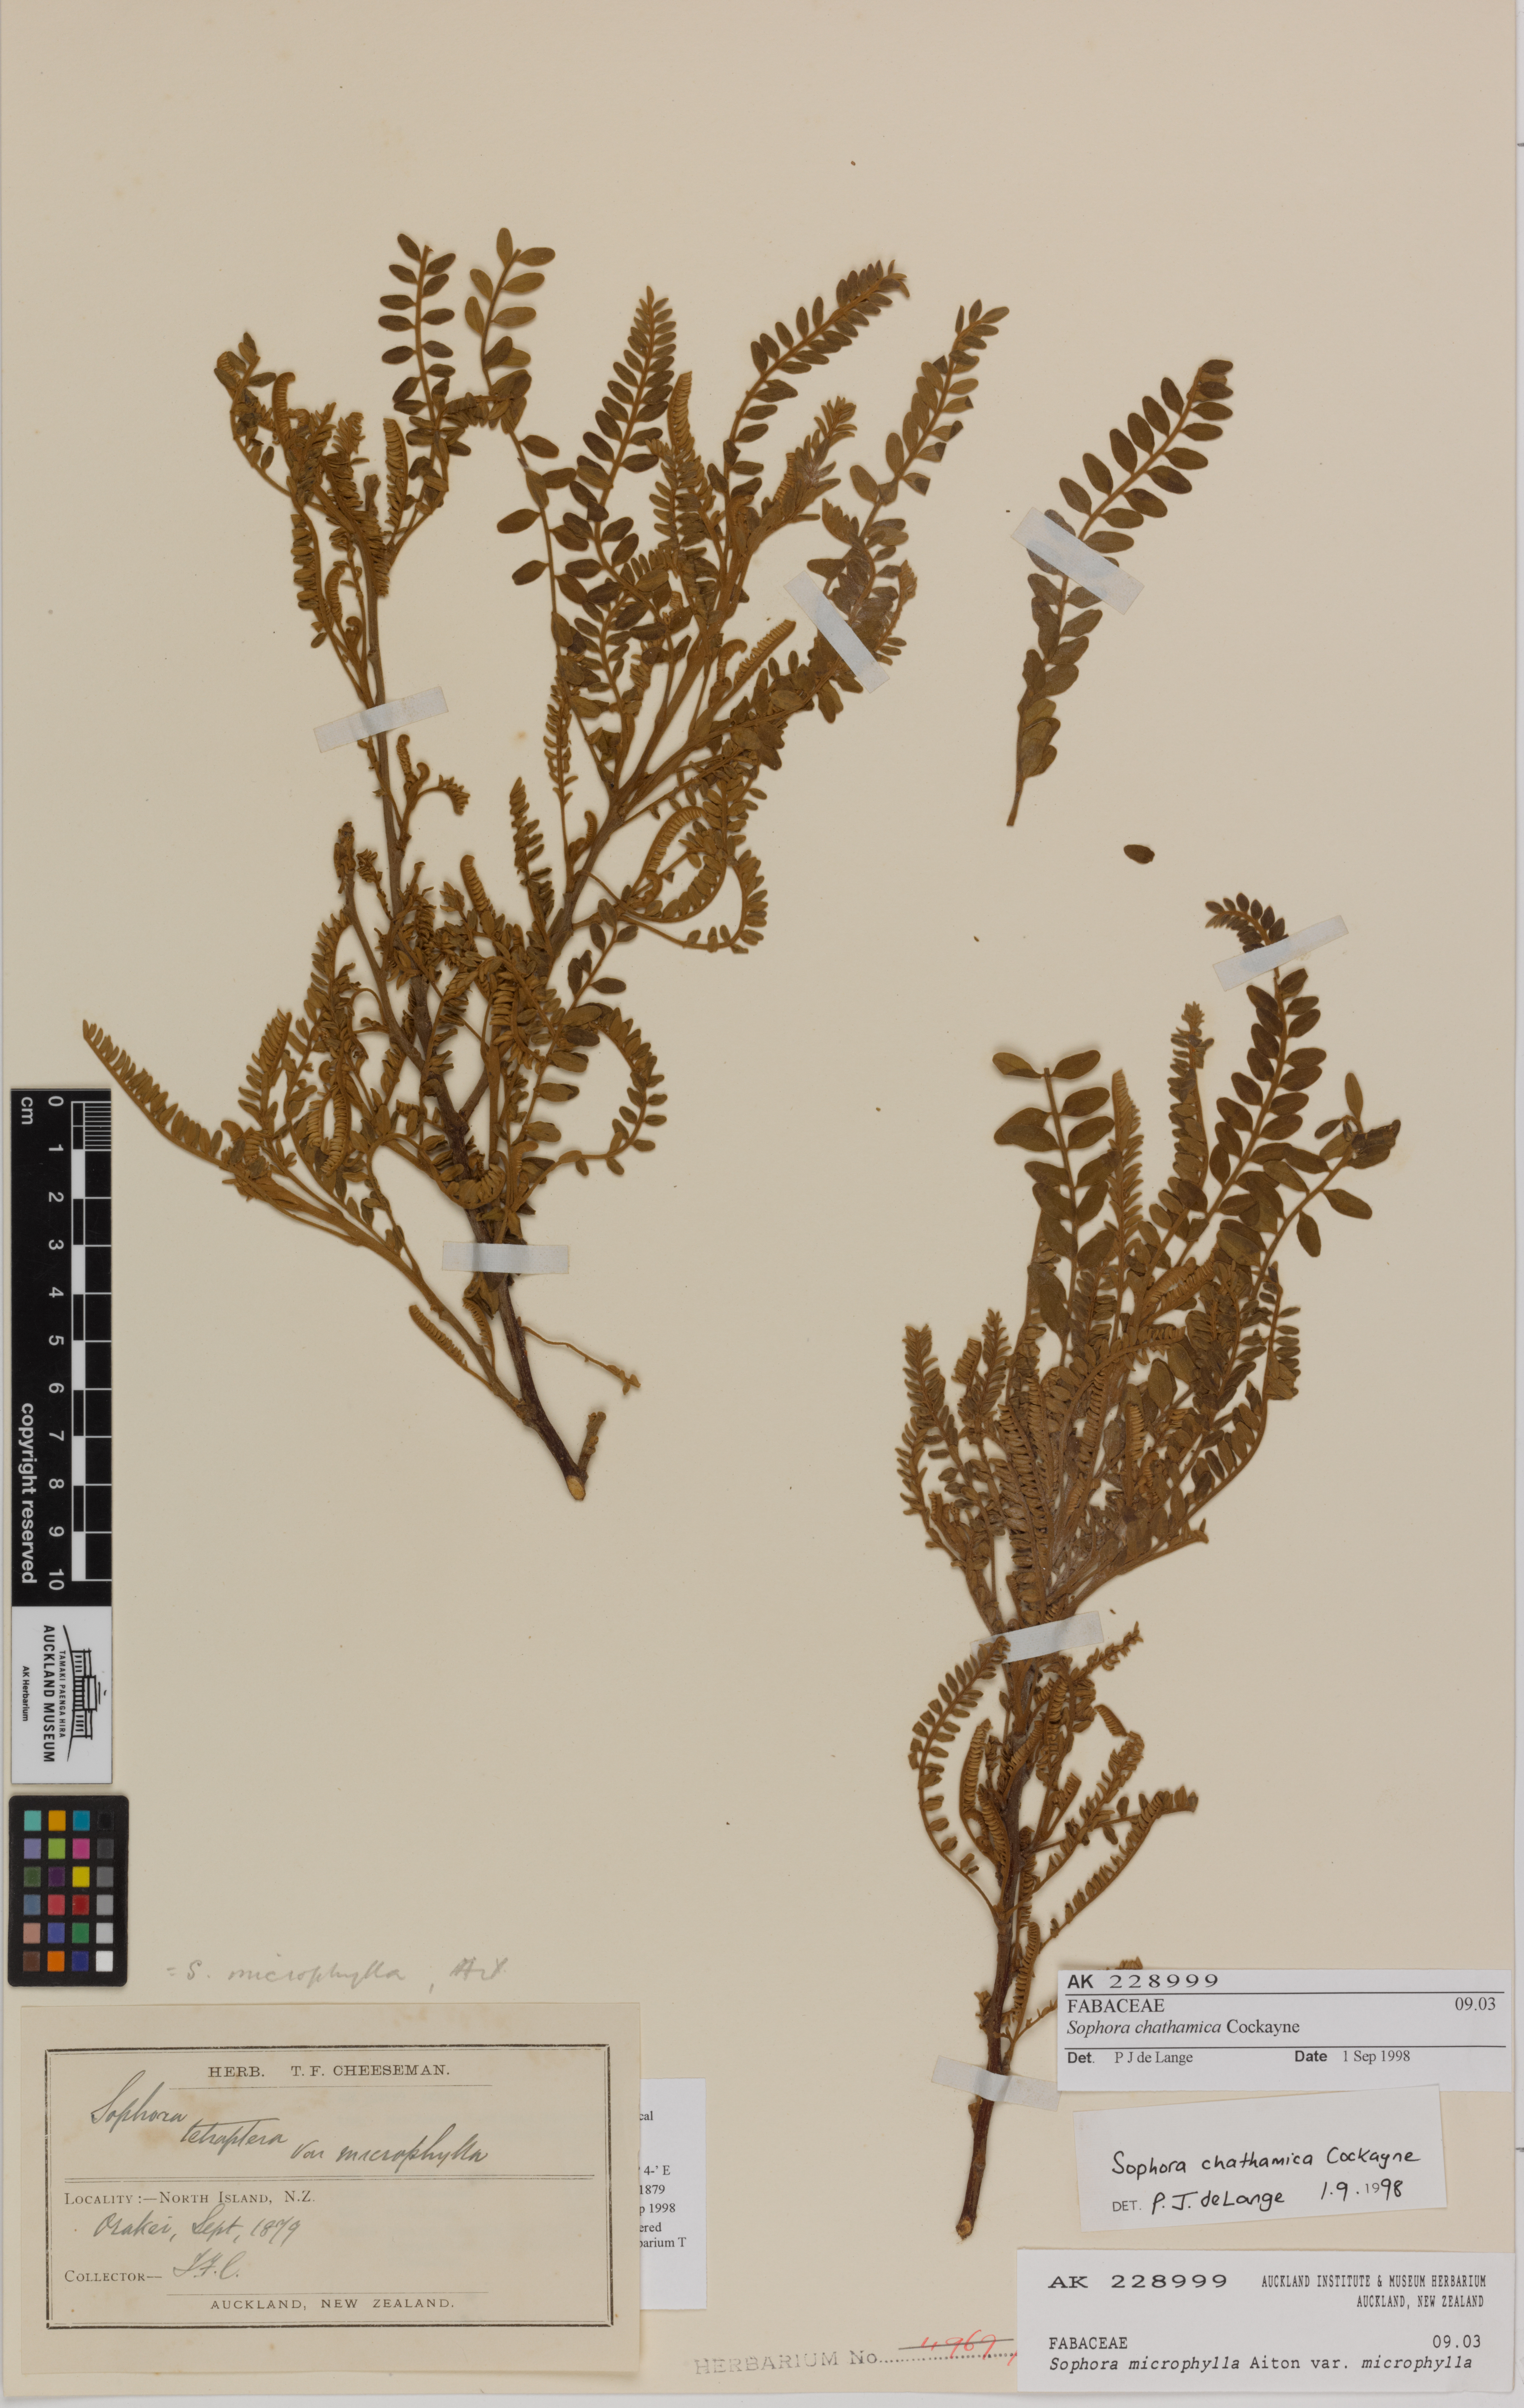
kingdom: Plantae
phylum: Tracheophyta
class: Magnoliopsida
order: Fabales
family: Fabaceae
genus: Sophora
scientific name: Sophora chathamica
